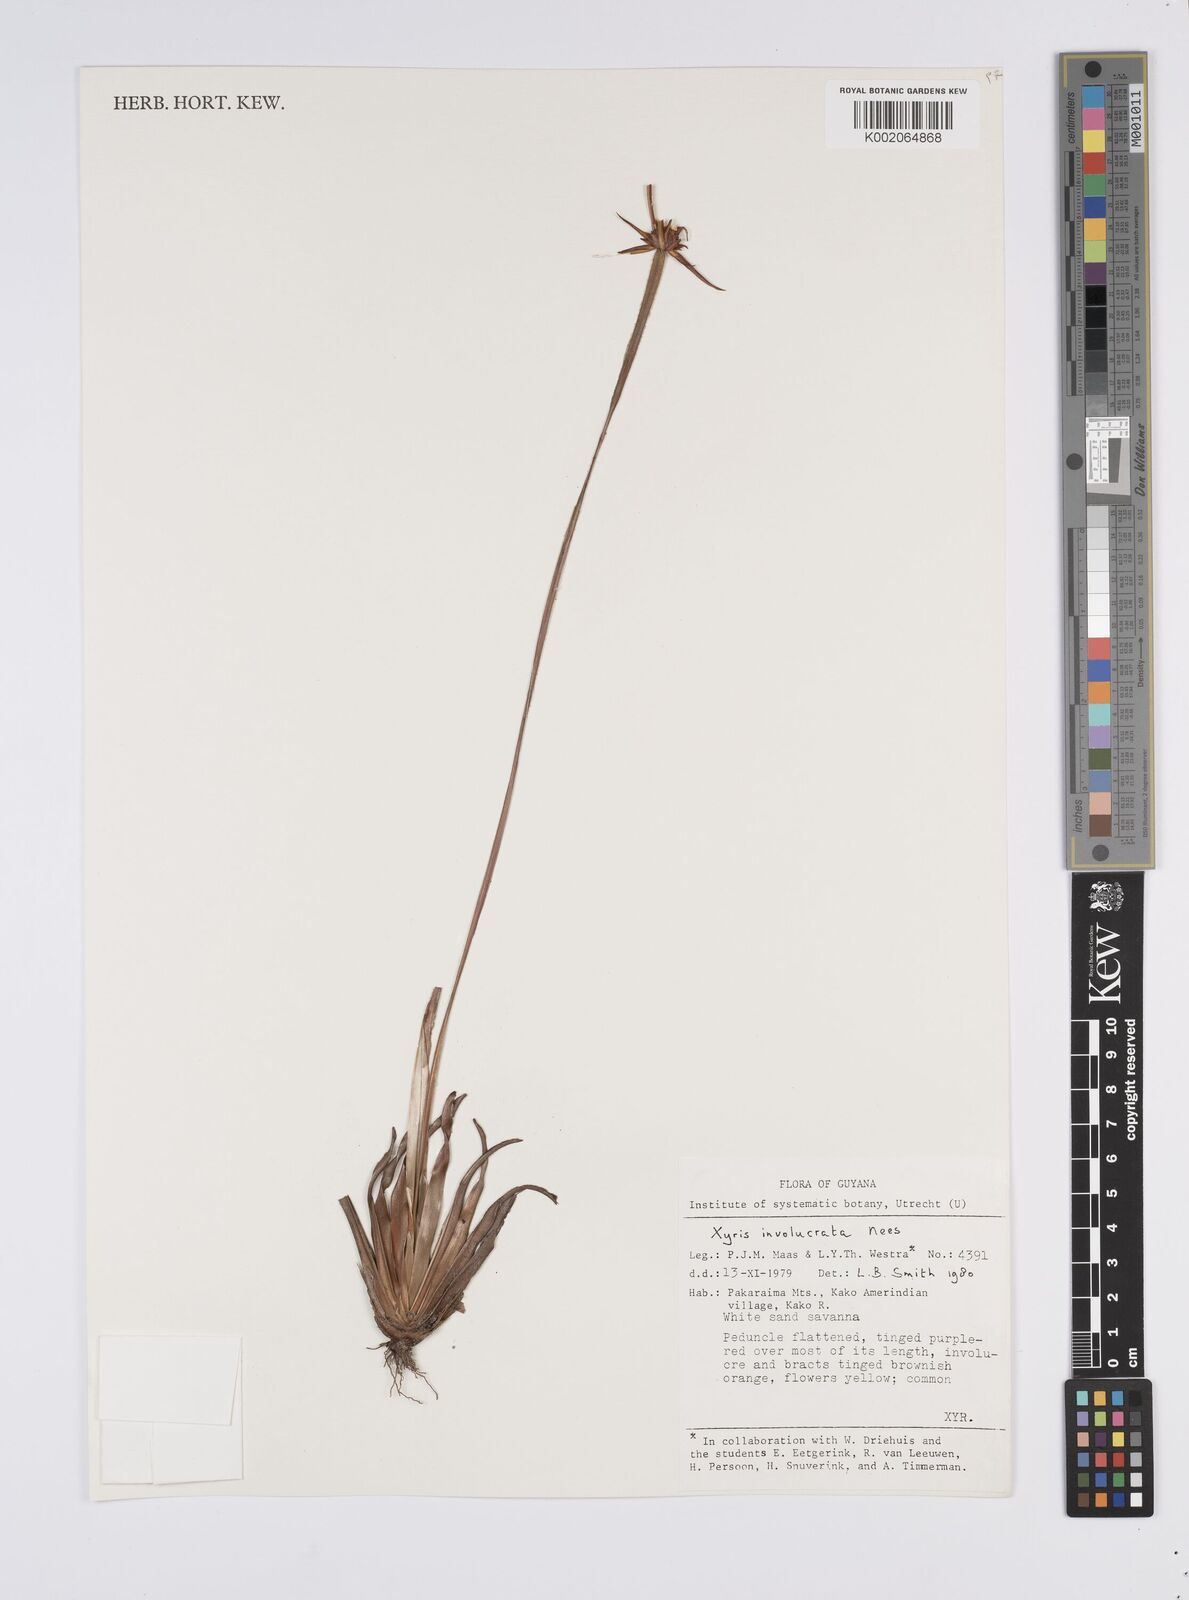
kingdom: Plantae
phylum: Tracheophyta
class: Liliopsida
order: Poales
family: Xyridaceae
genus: Xyris
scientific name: Xyris involucrata
